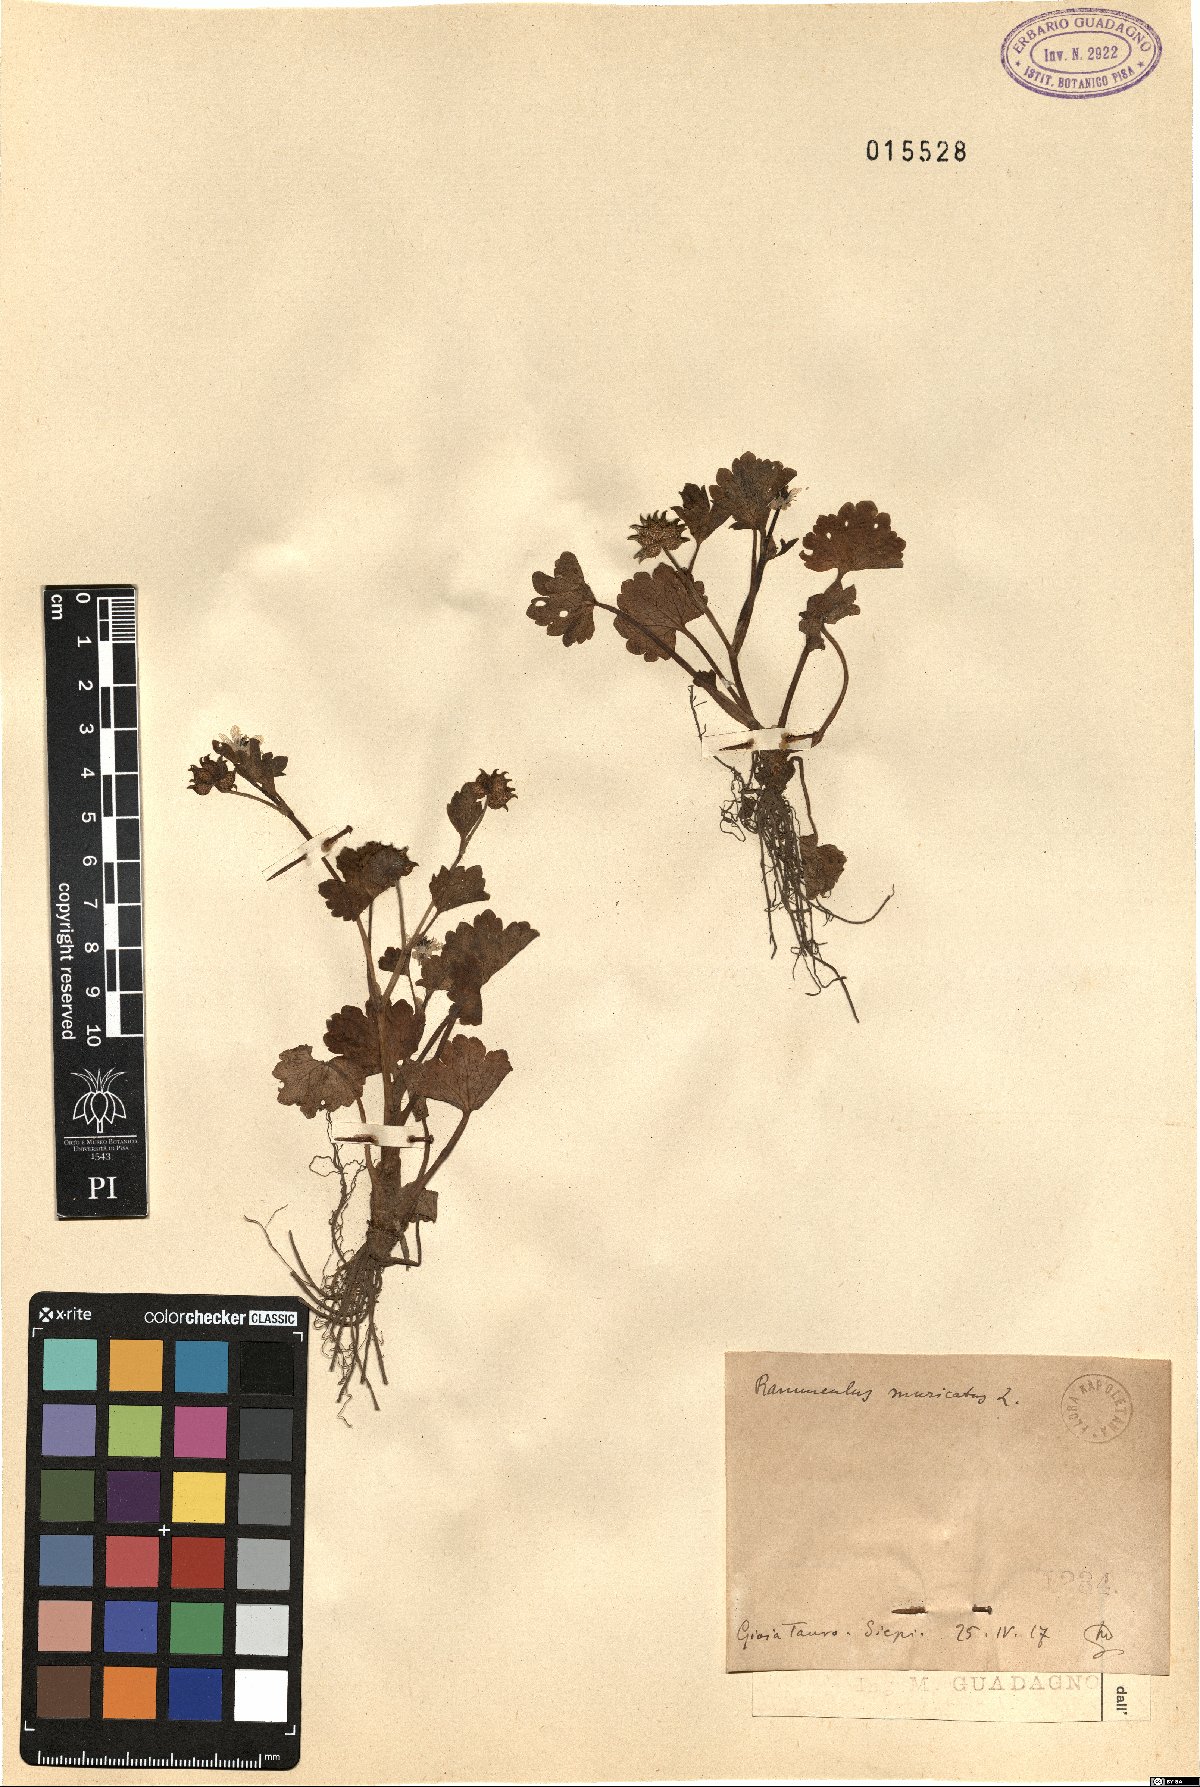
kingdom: Plantae
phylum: Tracheophyta
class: Magnoliopsida
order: Ranunculales
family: Ranunculaceae
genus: Ranunculus
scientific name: Ranunculus muricatus
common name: Rough-fruited buttercup
